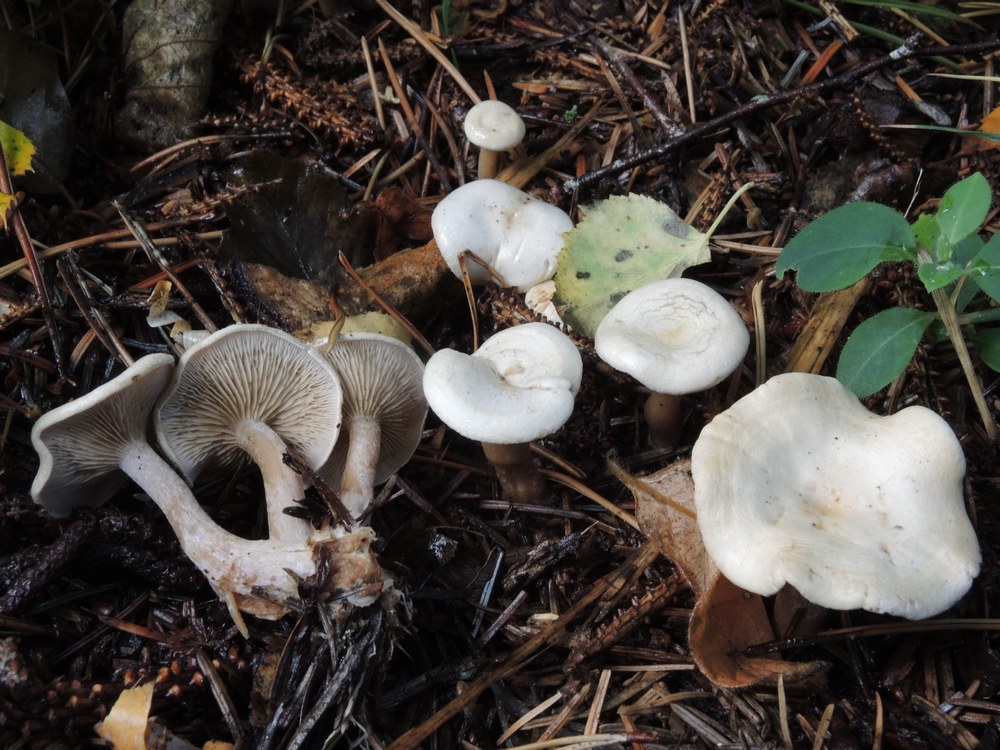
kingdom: Fungi
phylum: Basidiomycota
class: Agaricomycetes
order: Agaricales
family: Tricholomataceae
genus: Ripartites
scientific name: Ripartites tricholoma
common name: almindelig skæghat
